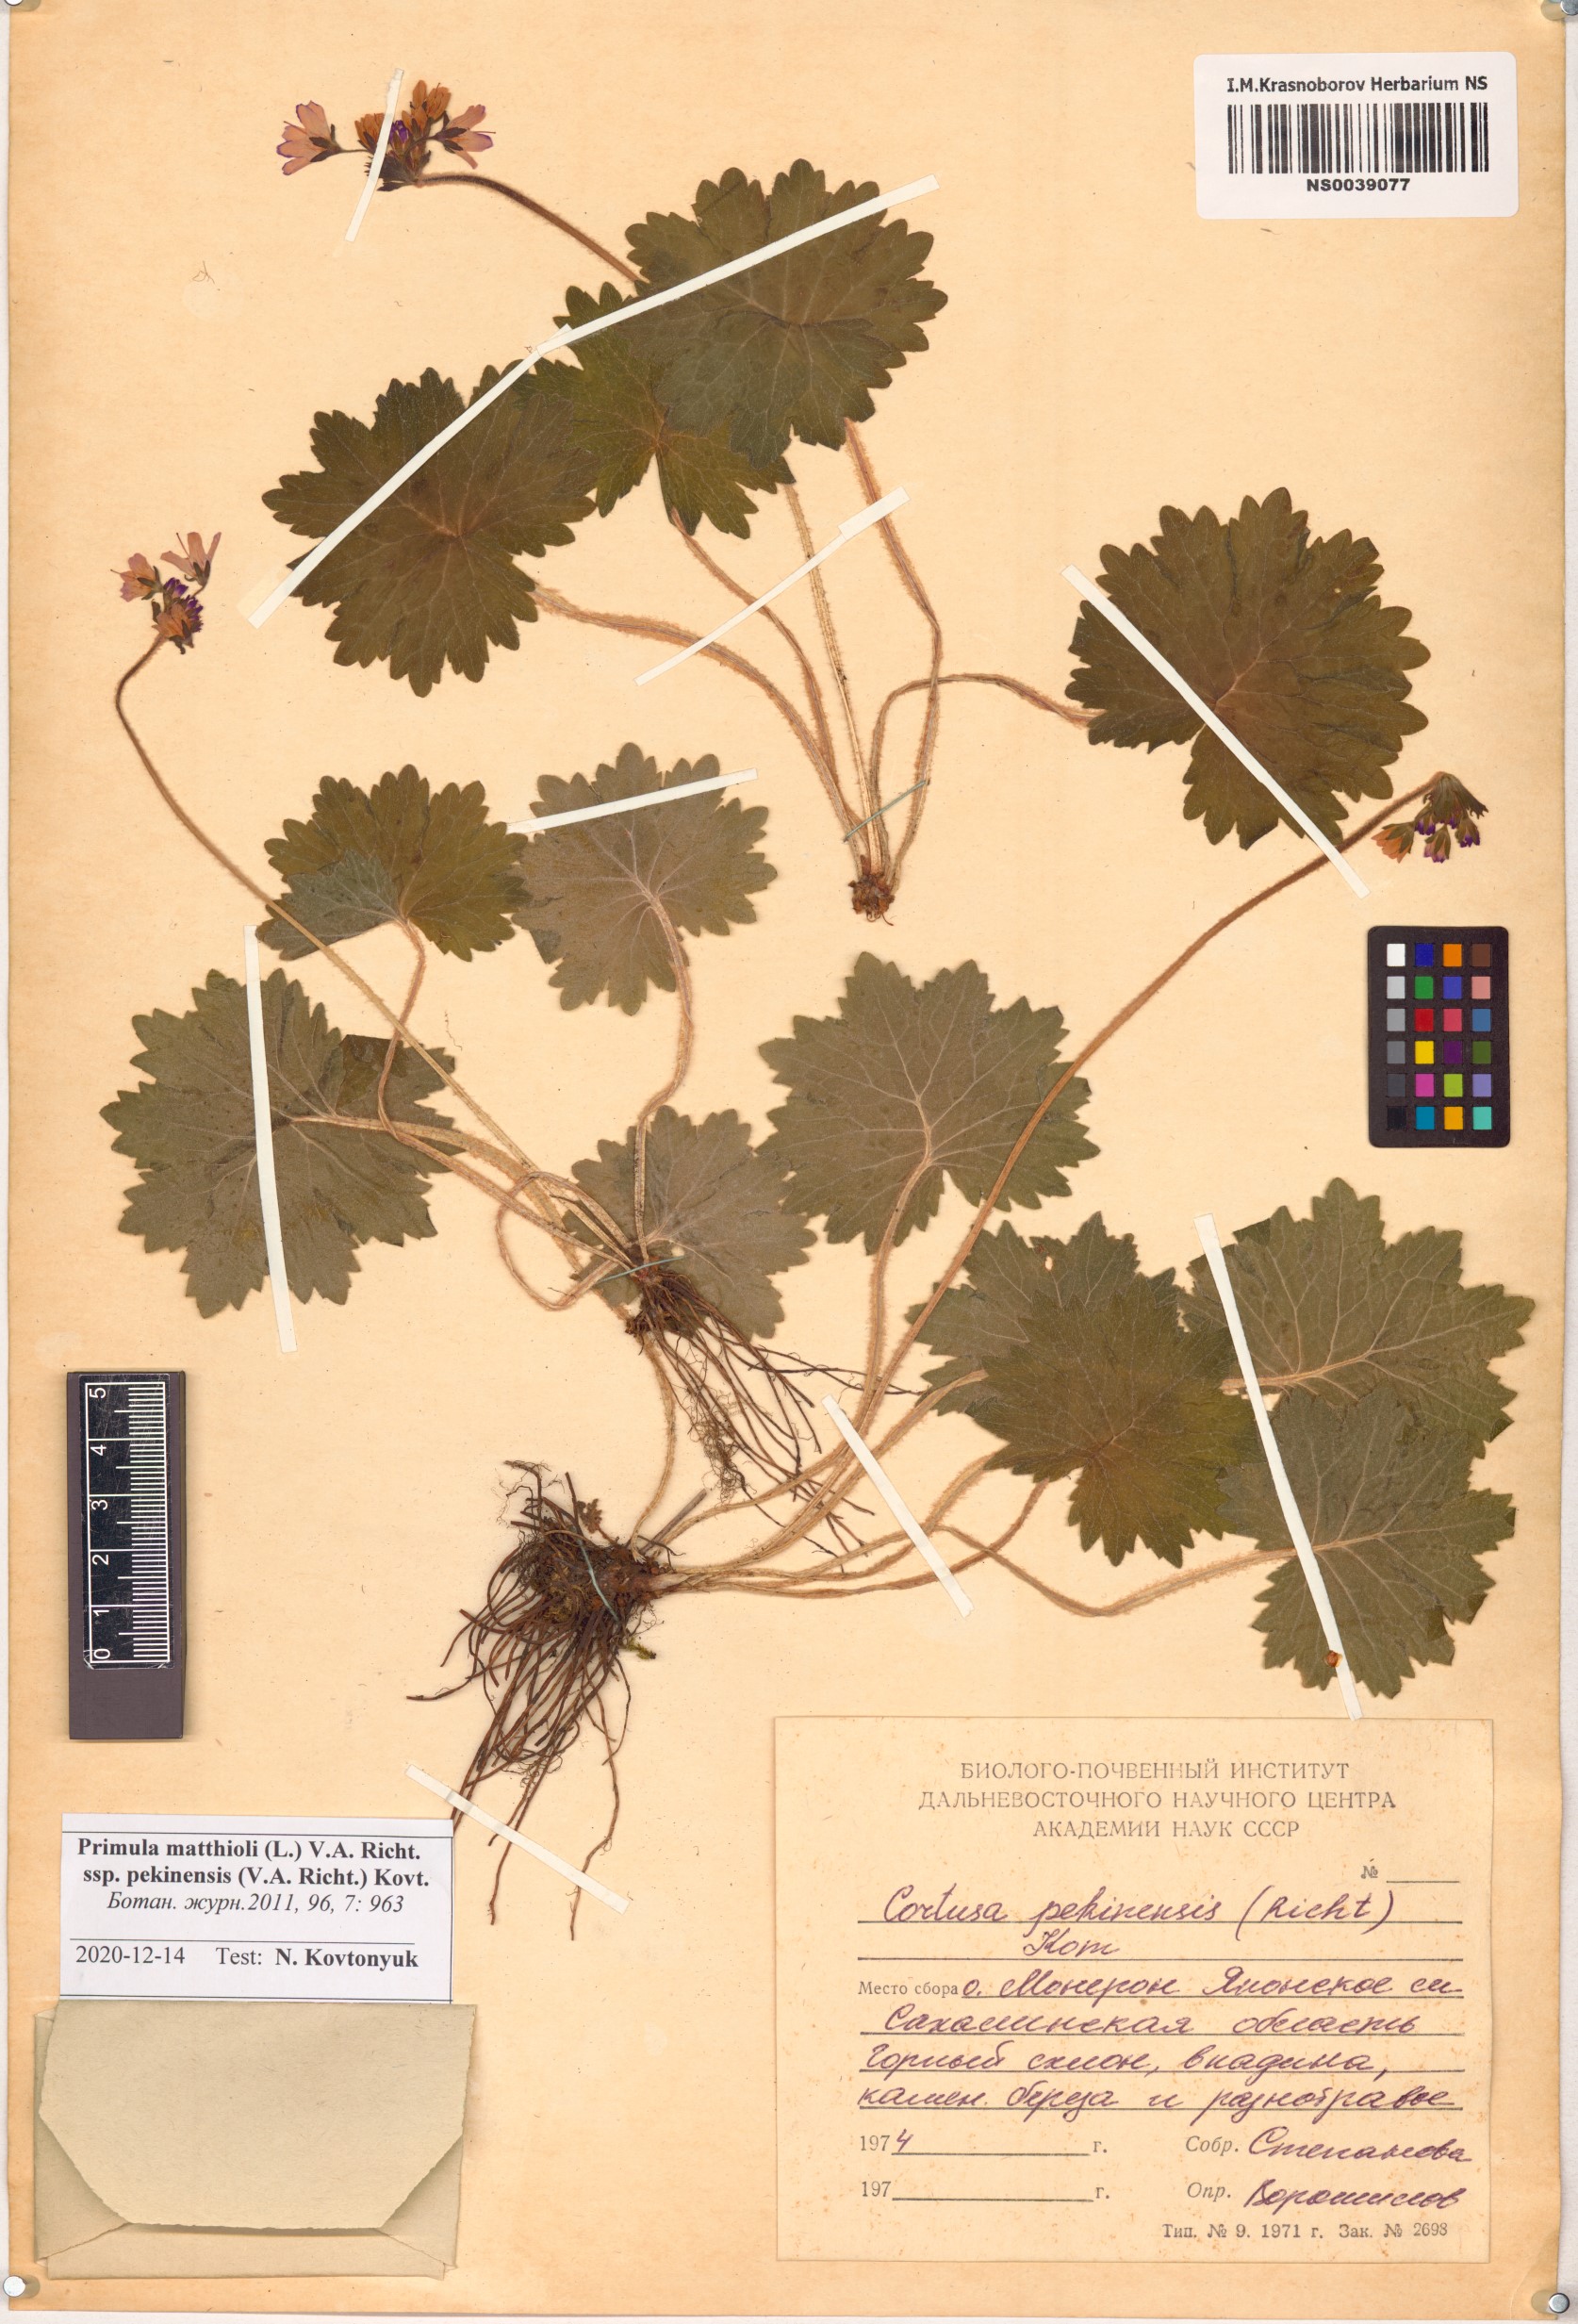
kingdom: Plantae
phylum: Tracheophyta
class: Magnoliopsida
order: Ericales
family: Primulaceae
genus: Primula
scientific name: Primula matthioli
